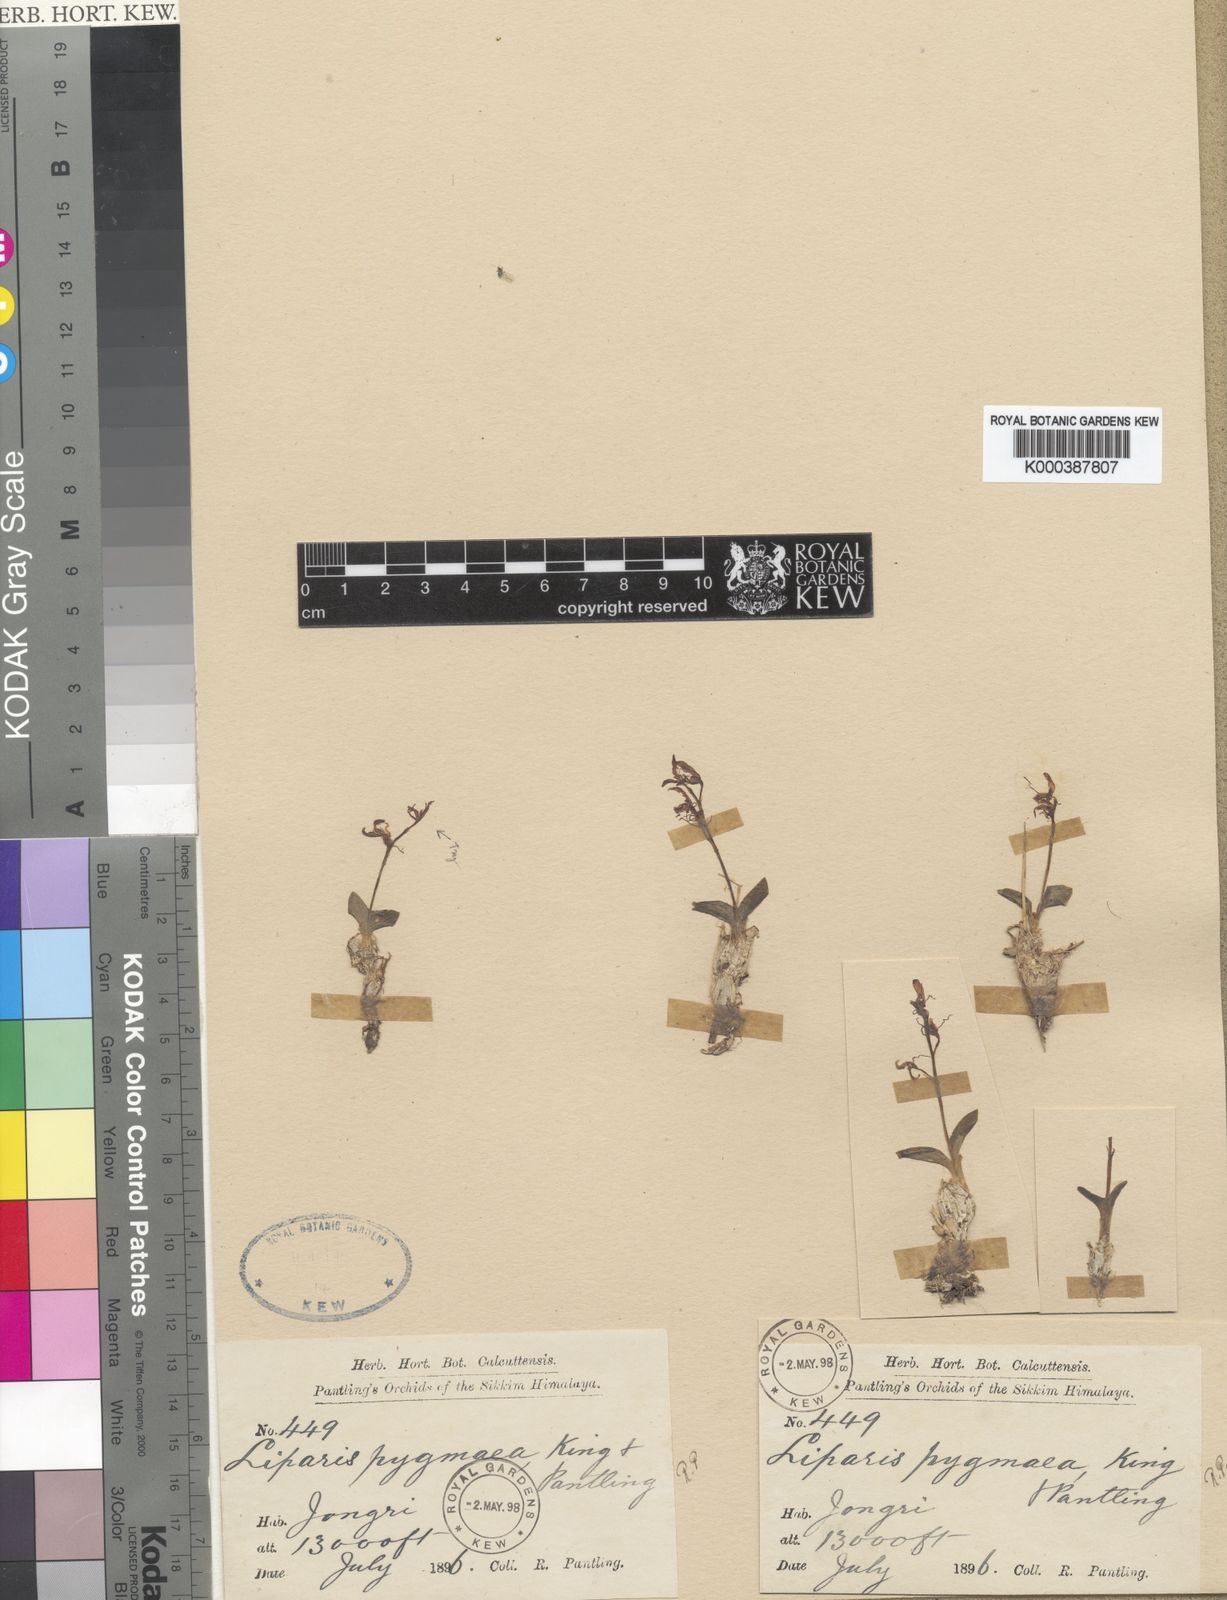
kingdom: Plantae
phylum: Tracheophyta
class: Liliopsida
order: Asparagales
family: Orchidaceae
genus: Liparis
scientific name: Liparis pygmaea
